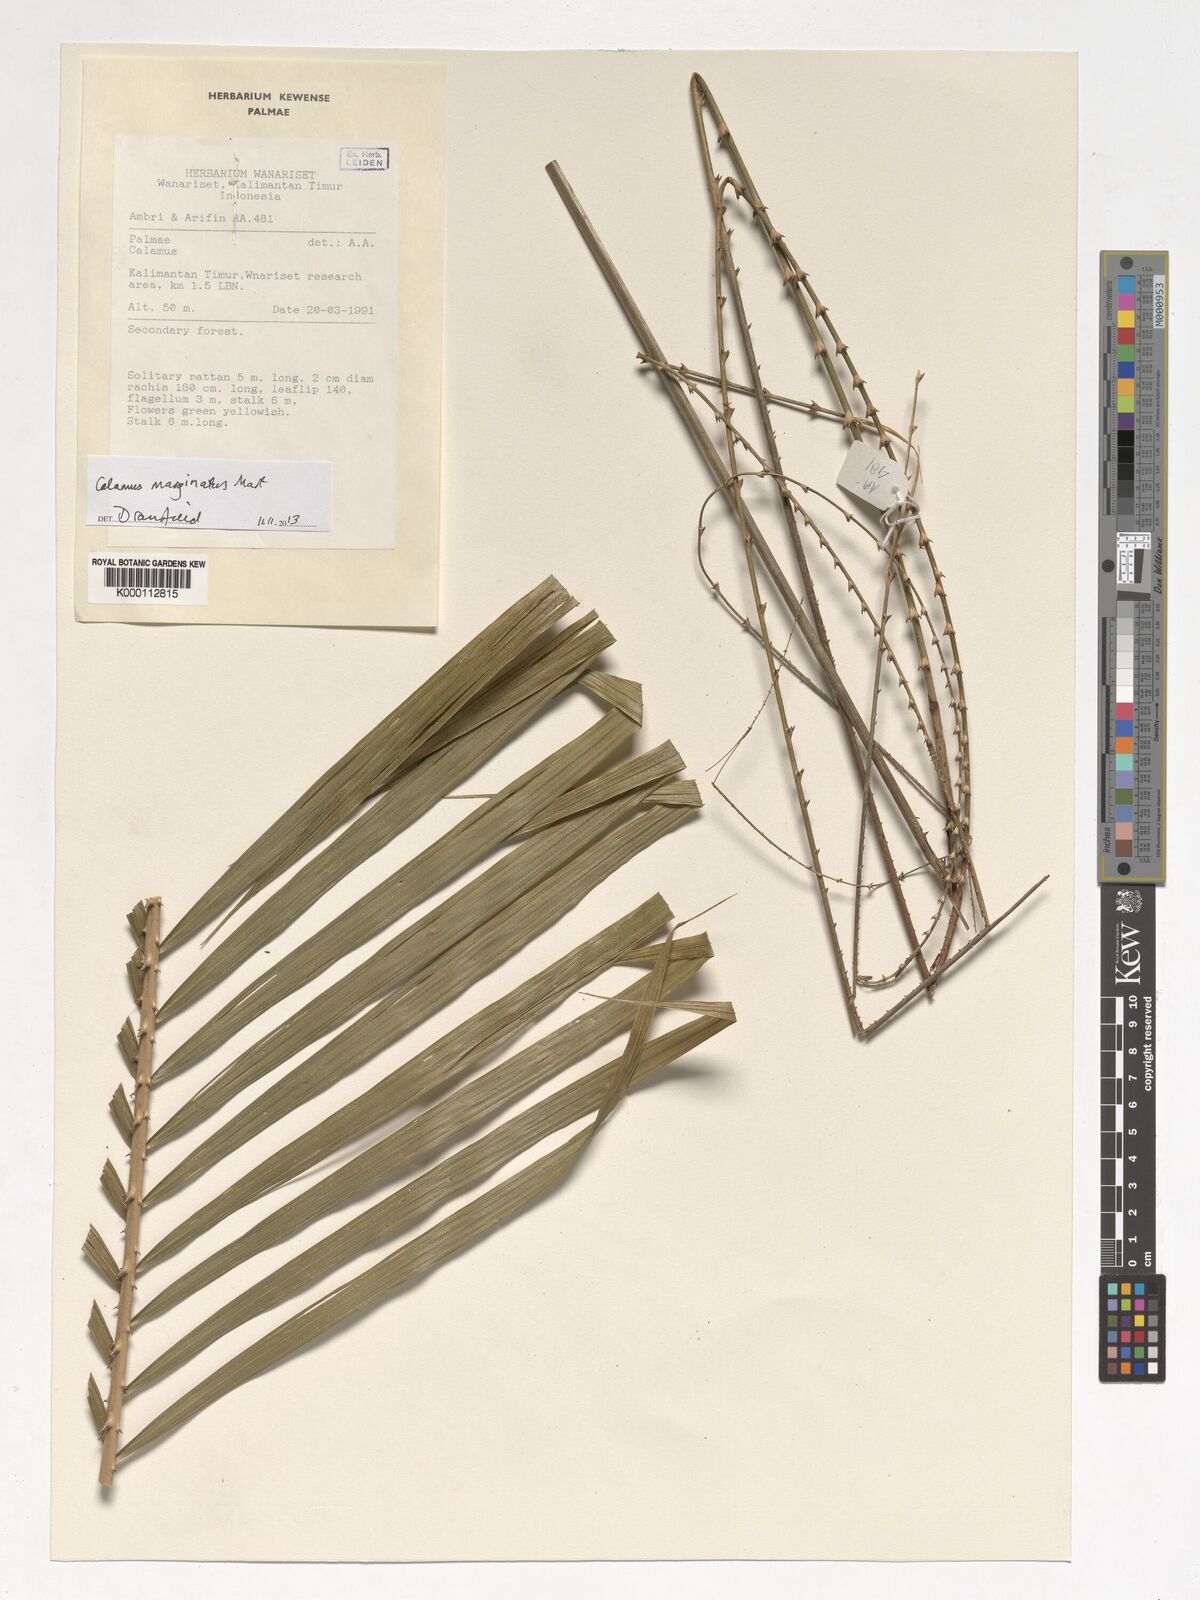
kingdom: Plantae
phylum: Tracheophyta
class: Liliopsida
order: Arecales
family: Arecaceae
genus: Calamus
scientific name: Calamus
